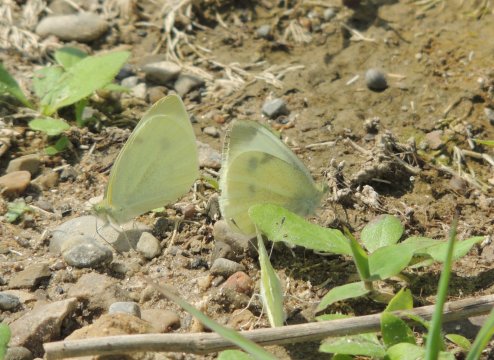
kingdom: Animalia
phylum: Arthropoda
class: Insecta
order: Lepidoptera
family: Pieridae
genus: Pieris
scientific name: Pieris rapae
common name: Cabbage White
